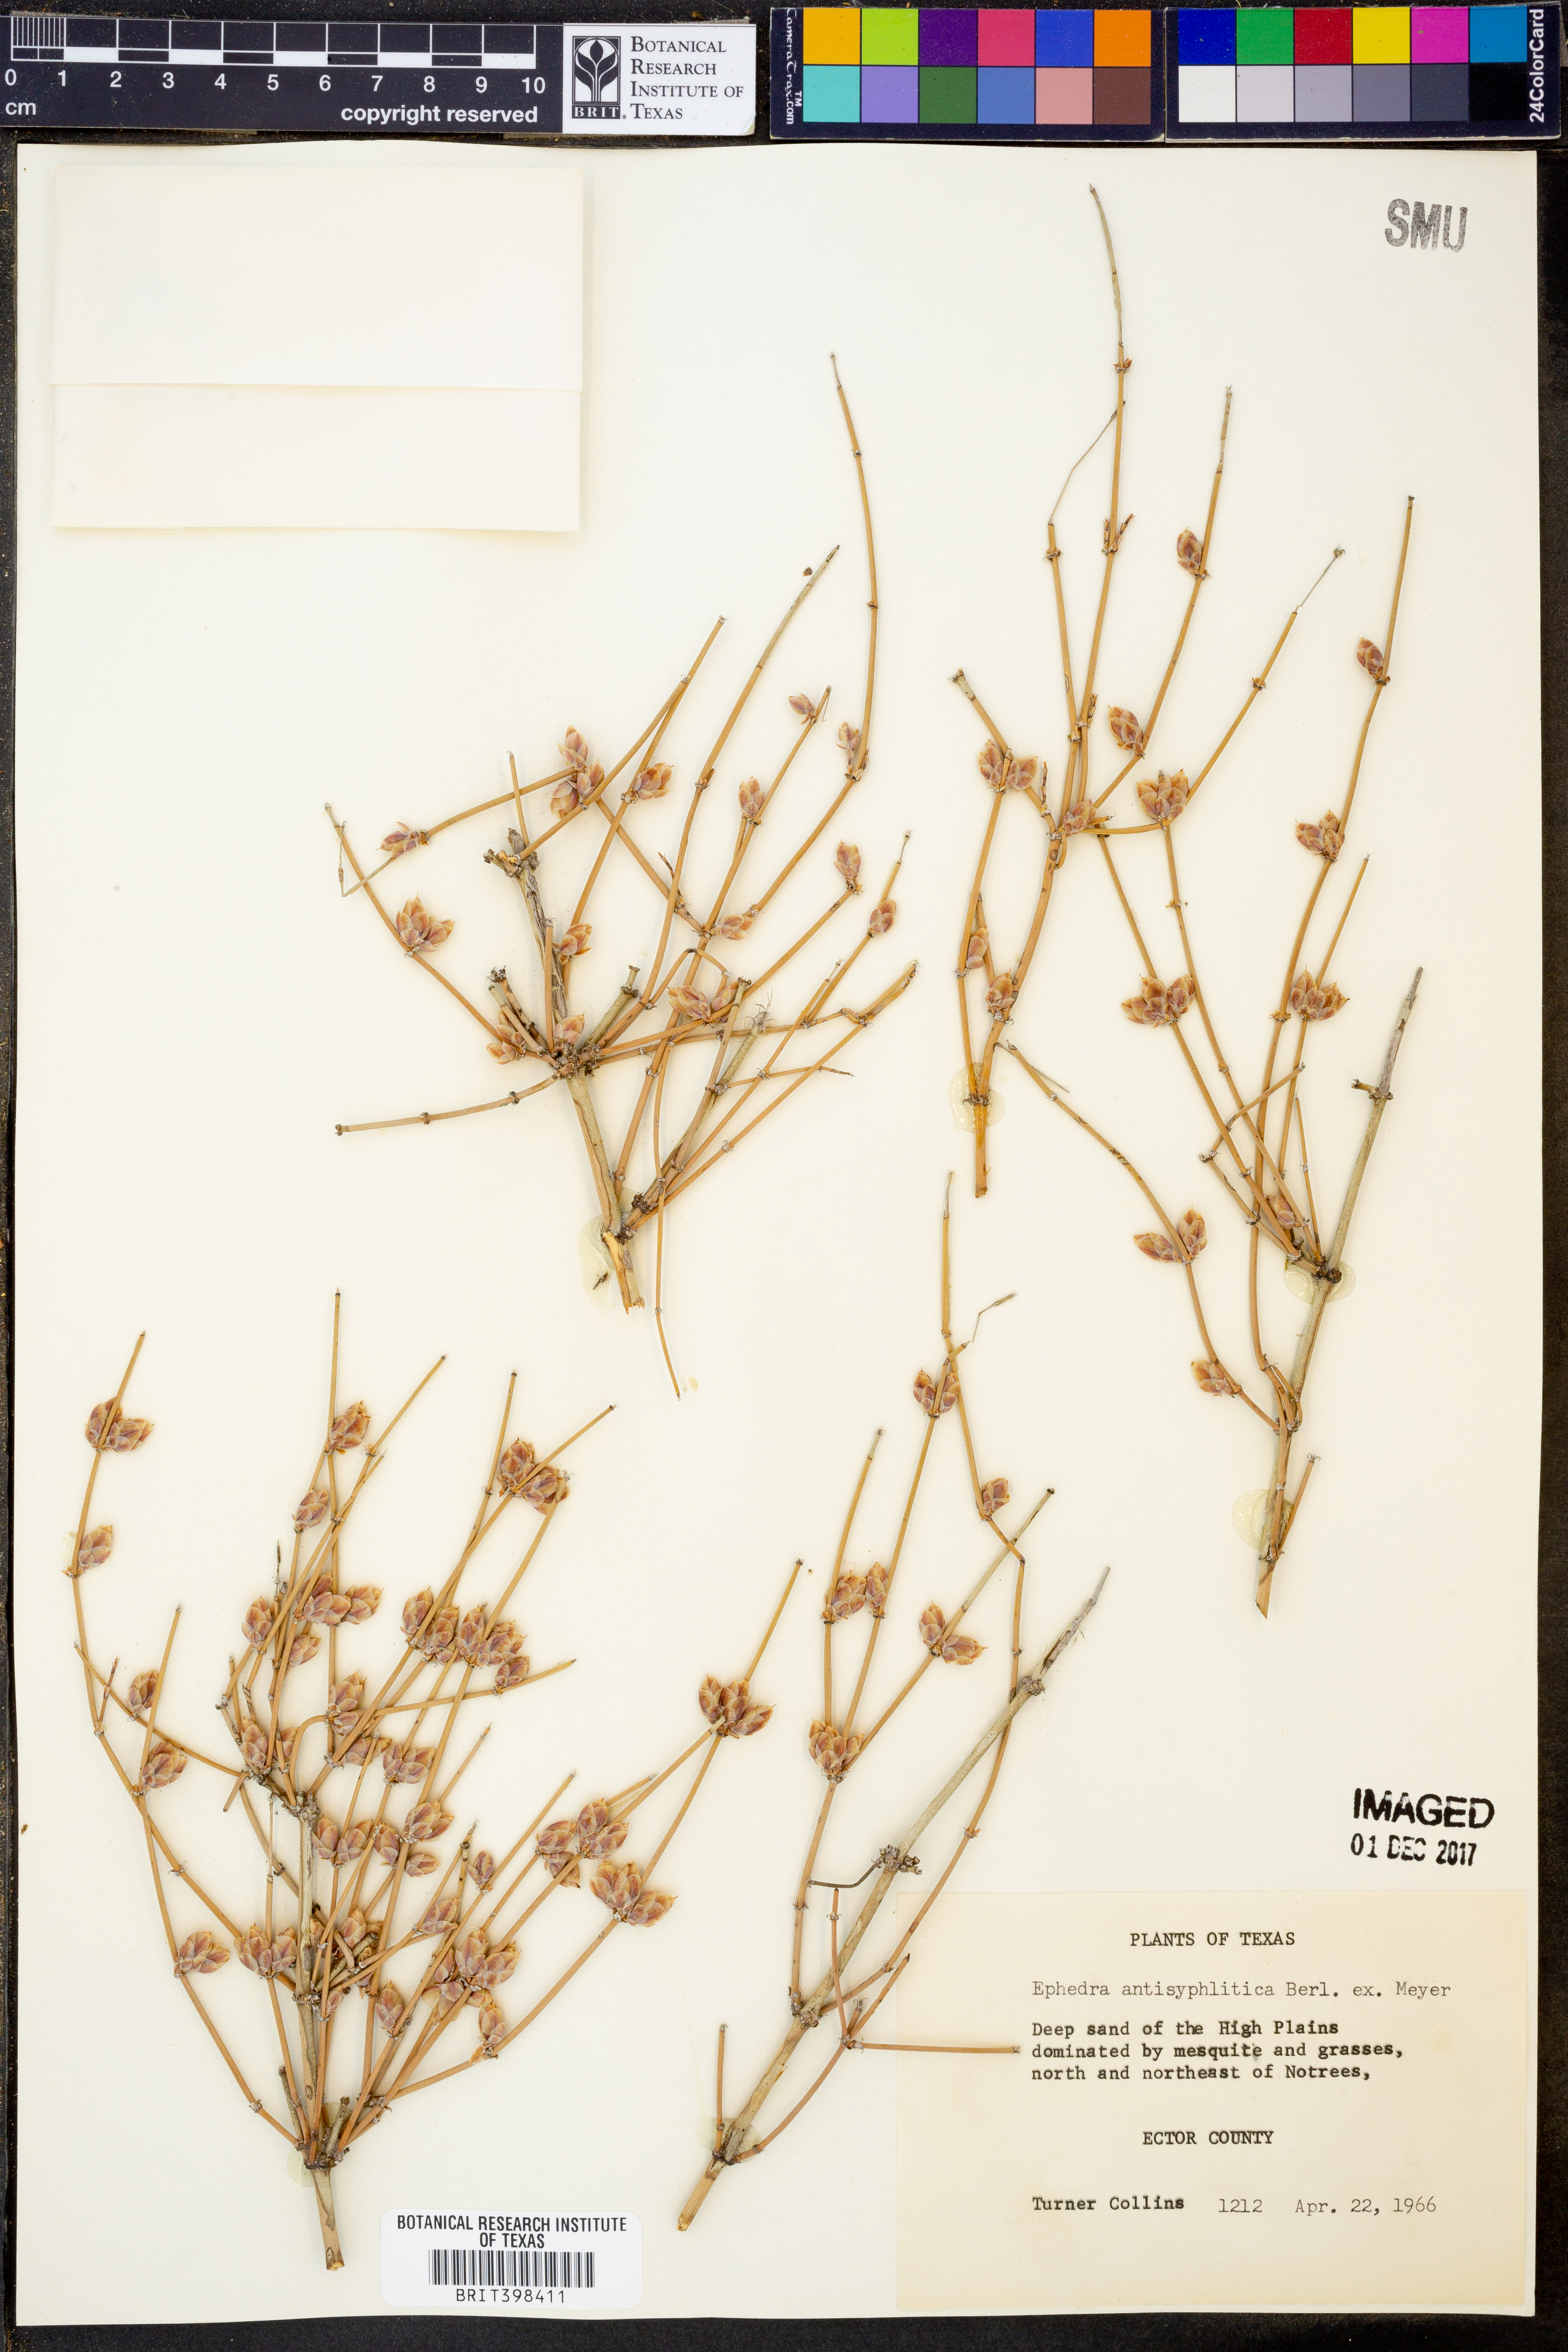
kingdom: Plantae
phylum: Tracheophyta
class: Gnetopsida
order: Ephedrales
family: Ephedraceae
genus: Ephedra
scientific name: Ephedra antisyphilitica
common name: Clipweed
